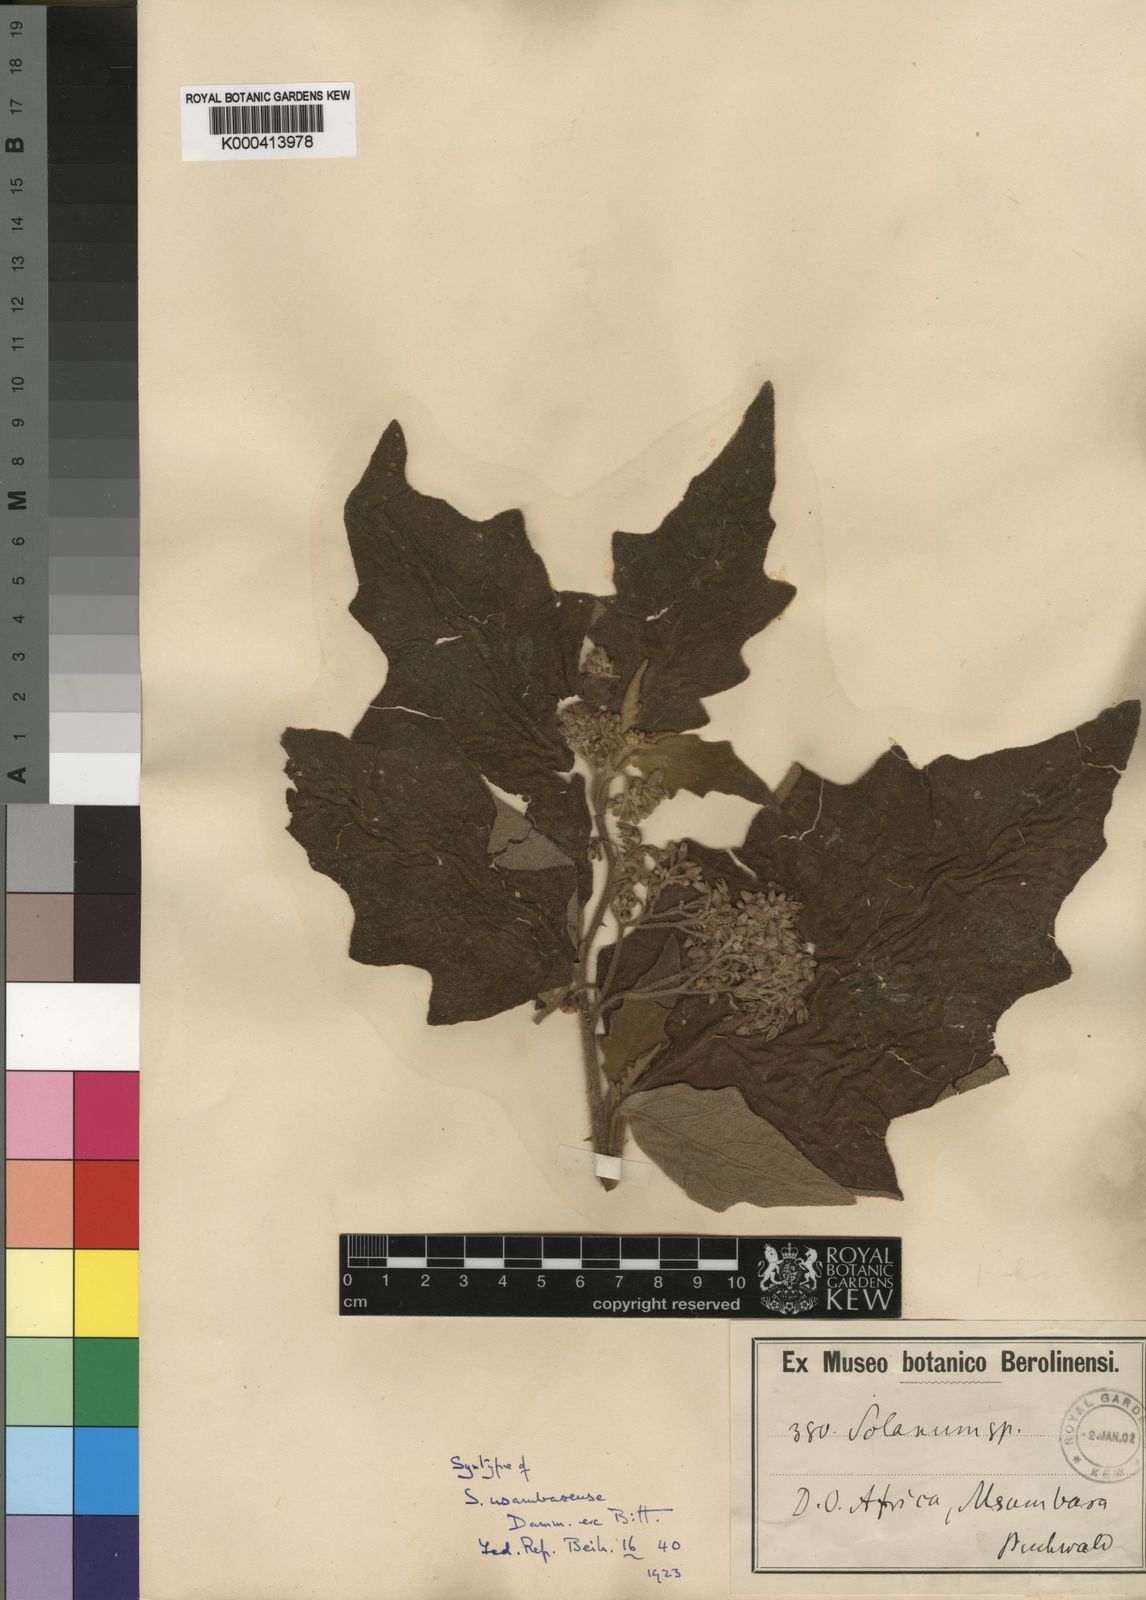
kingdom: Plantae
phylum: Tracheophyta
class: Magnoliopsida
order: Solanales
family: Solanaceae
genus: Solanum
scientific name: Solanum usambarense
